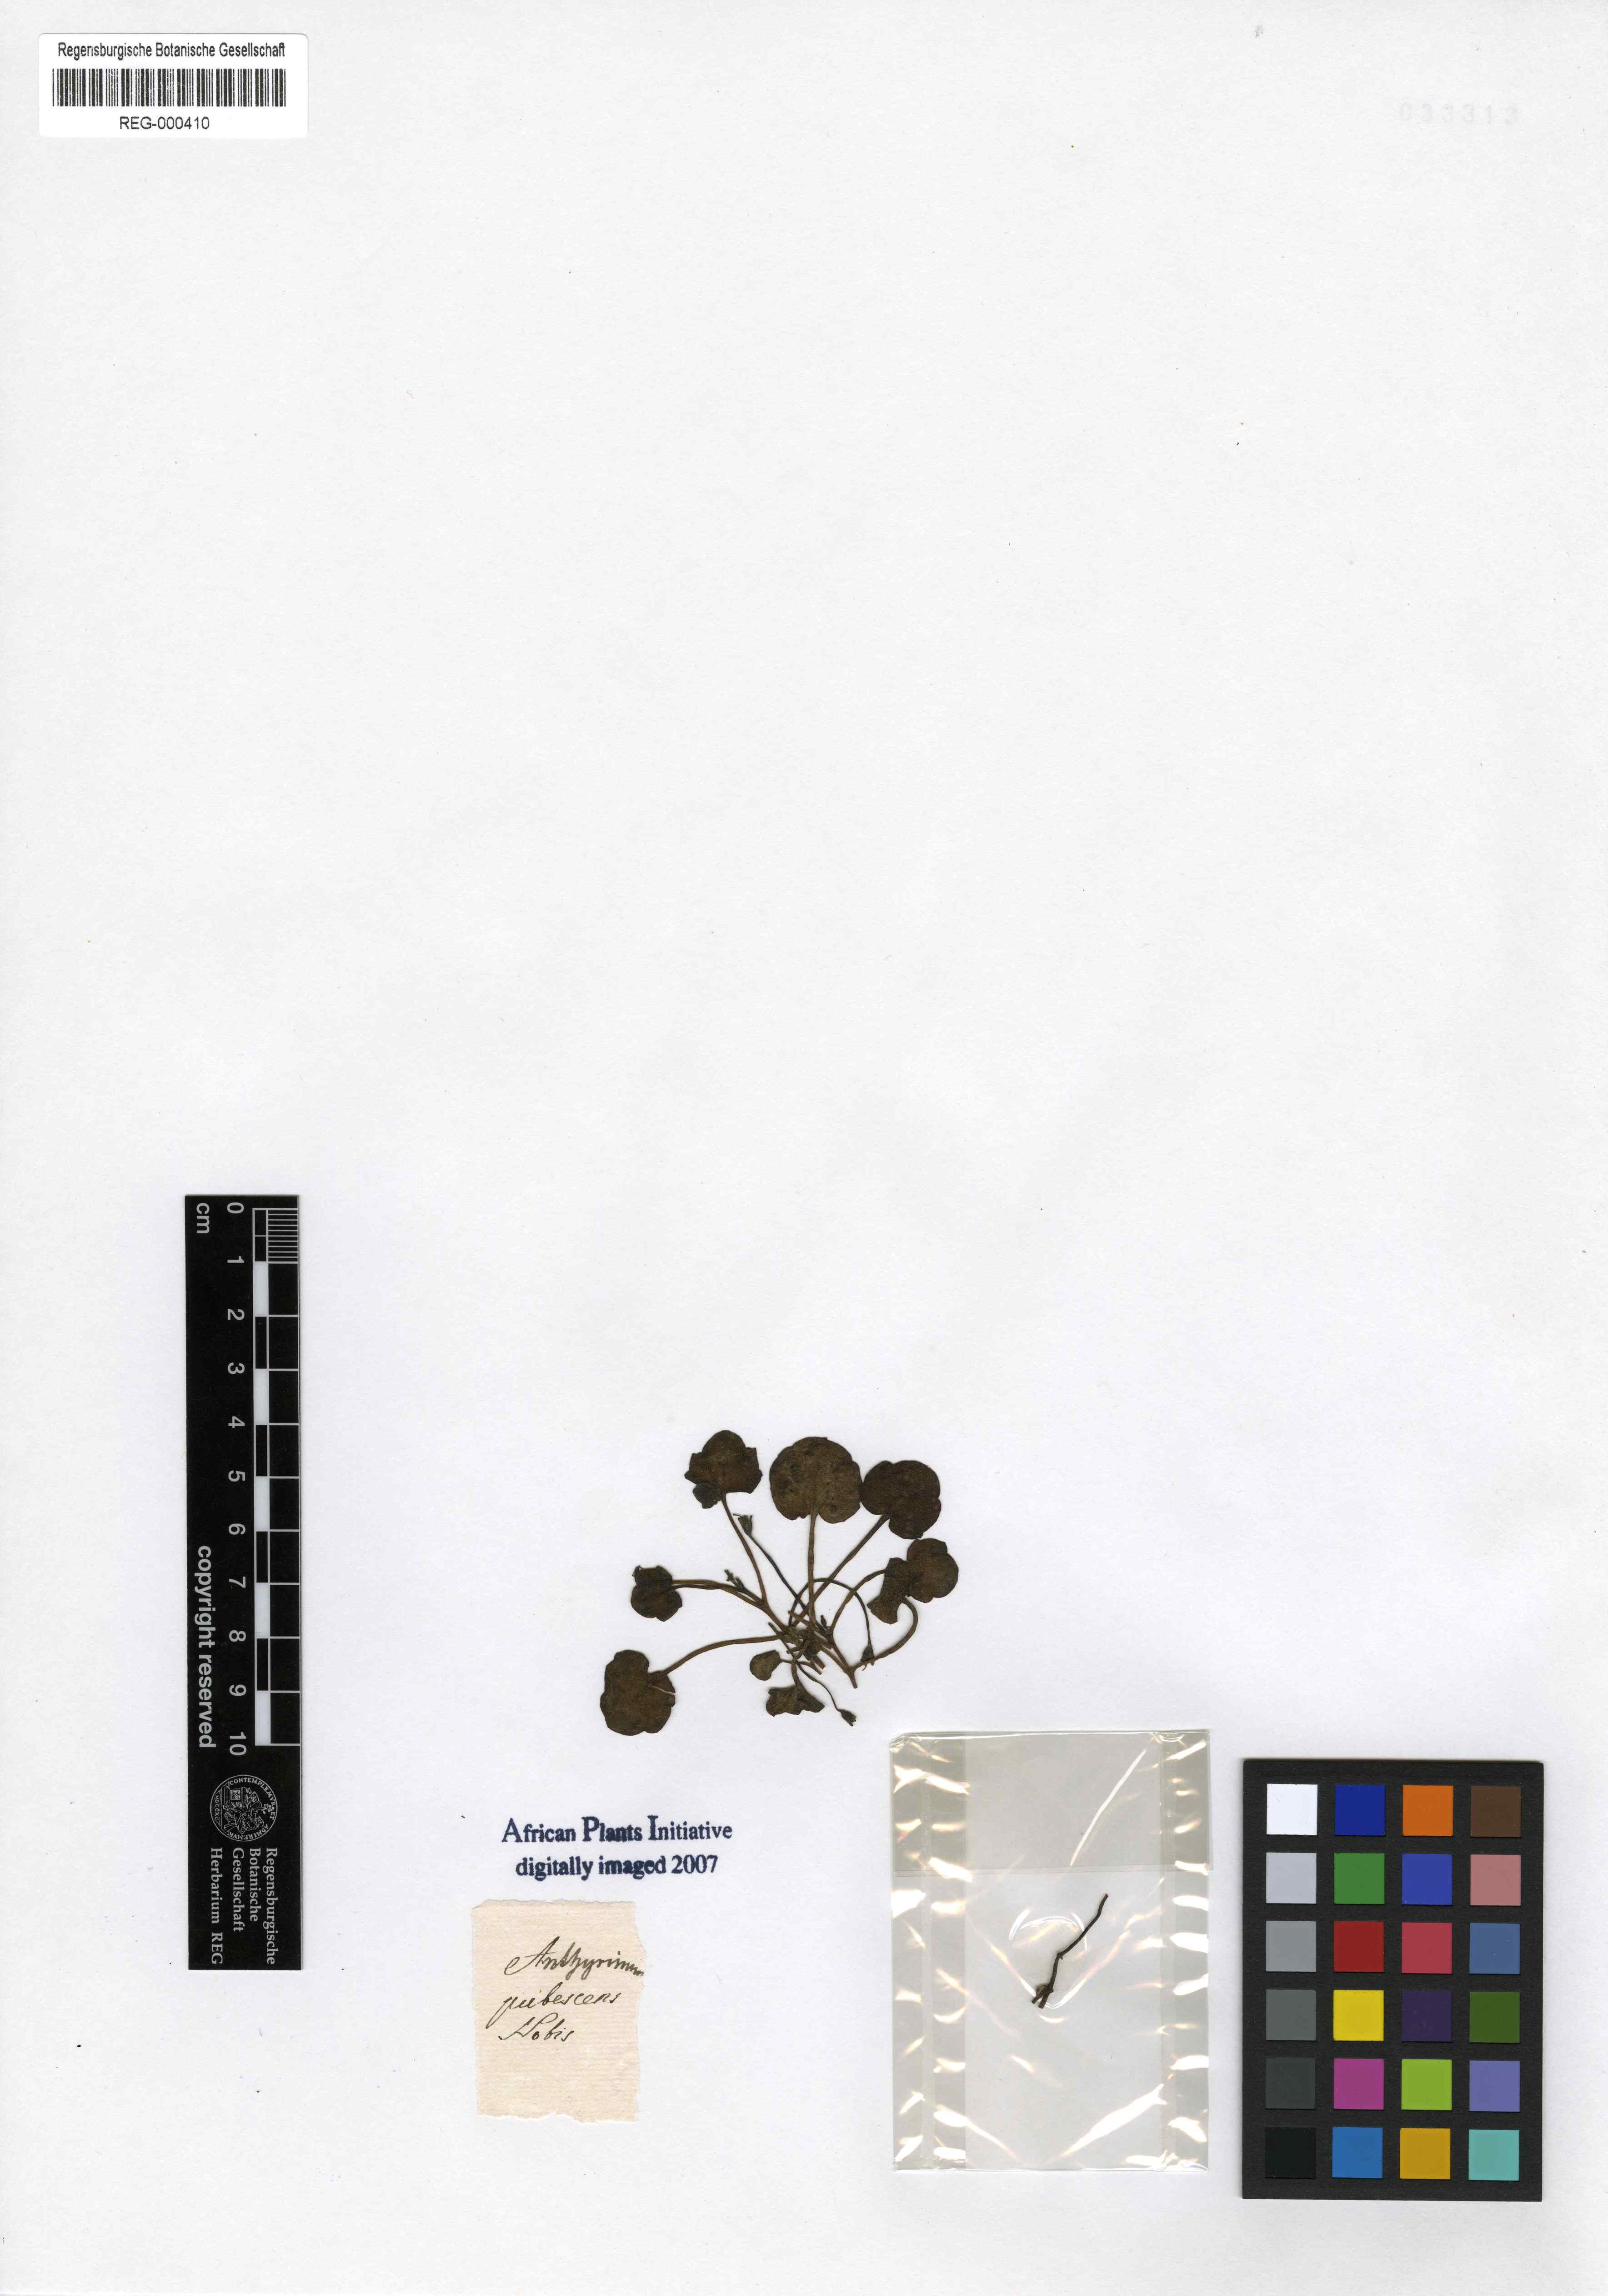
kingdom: Plantae
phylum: Tracheophyta
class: Magnoliopsida
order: Lamiales
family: Plantaginaceae
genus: Cymbalaria
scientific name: Cymbalaria pallida
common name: Italian toadflax
